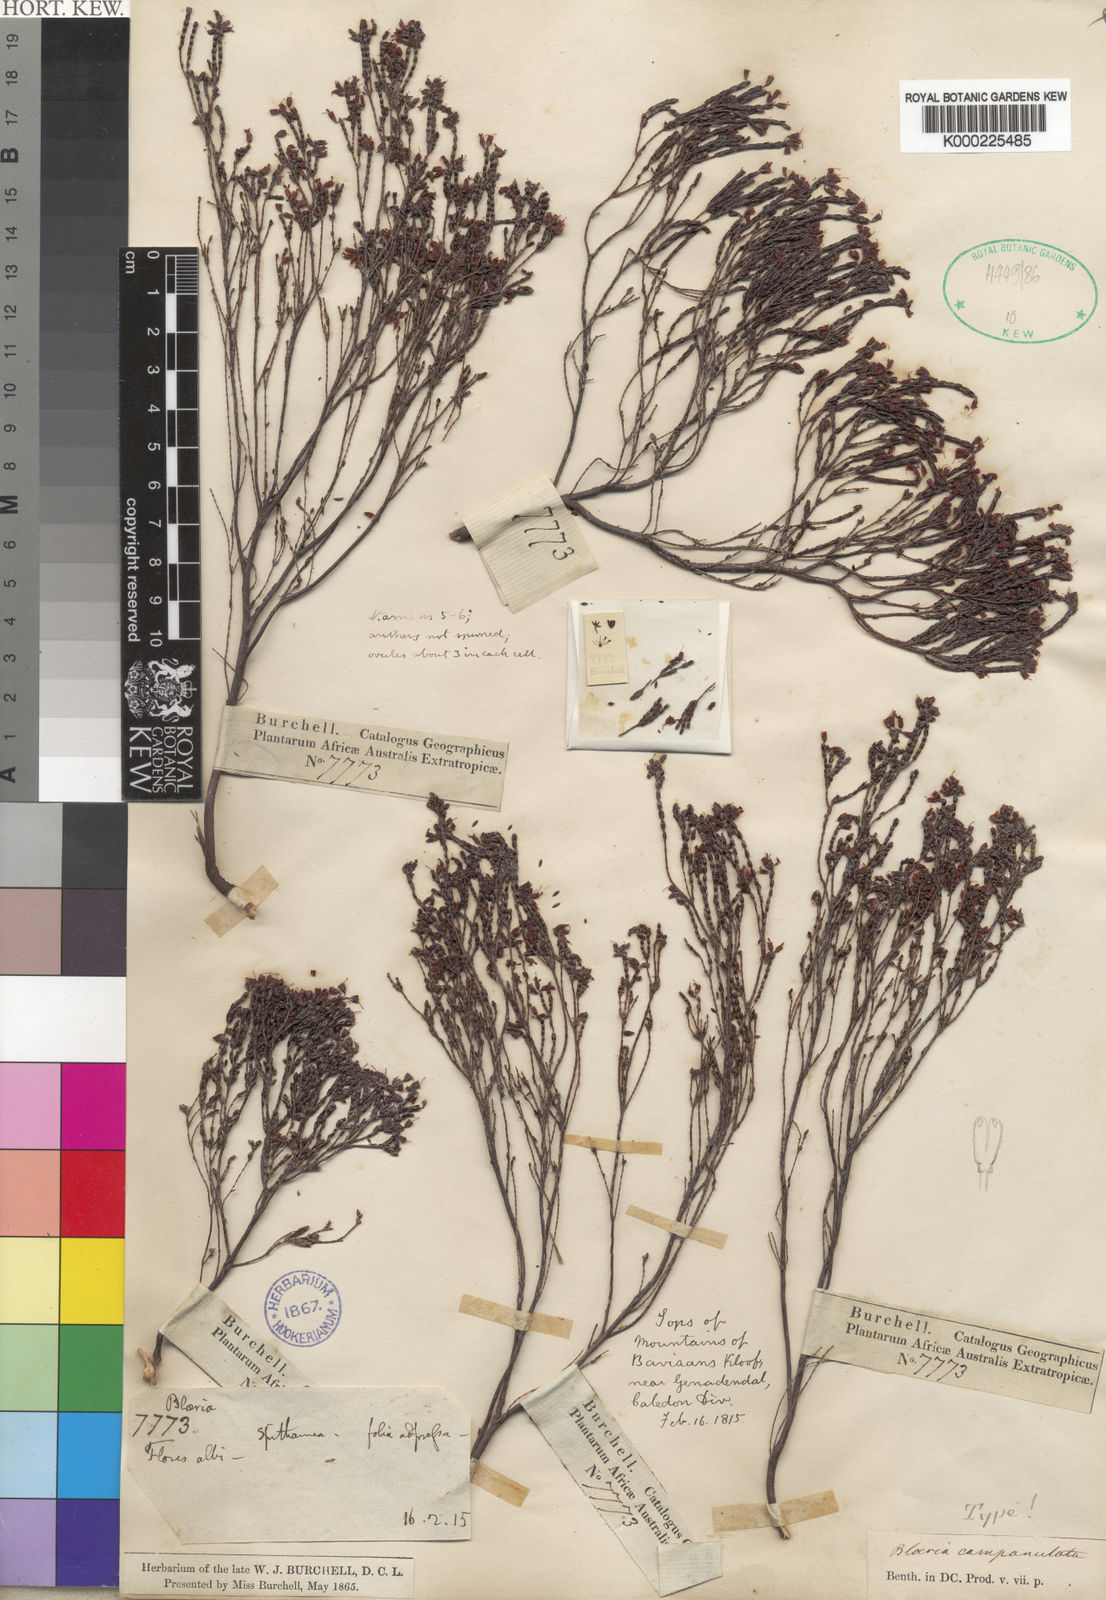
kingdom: Plantae
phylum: Tracheophyta
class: Magnoliopsida
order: Ericales
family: Ericaceae
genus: Erica
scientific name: Erica equisetifolia
